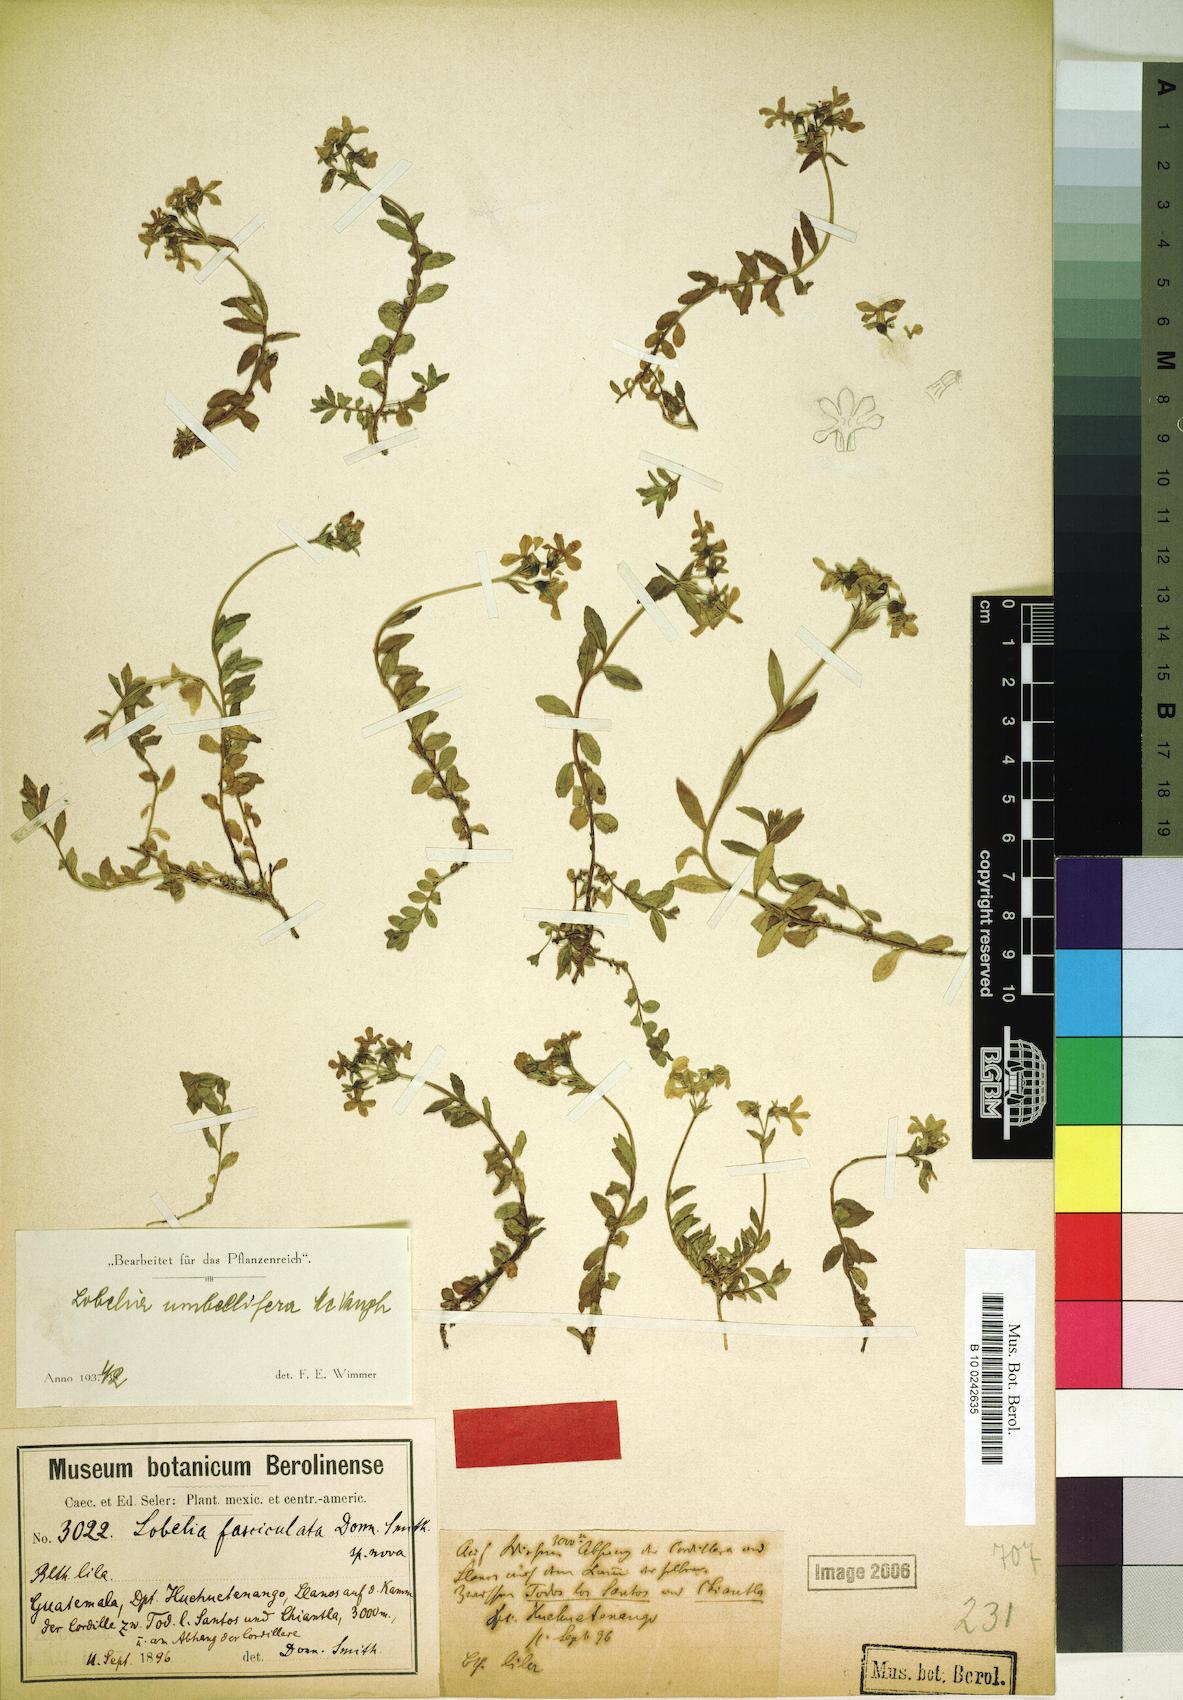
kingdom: Plantae
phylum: Tracheophyta
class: Magnoliopsida
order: Asterales
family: Campanulaceae
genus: Lobelia
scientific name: Lobelia umbellifera
